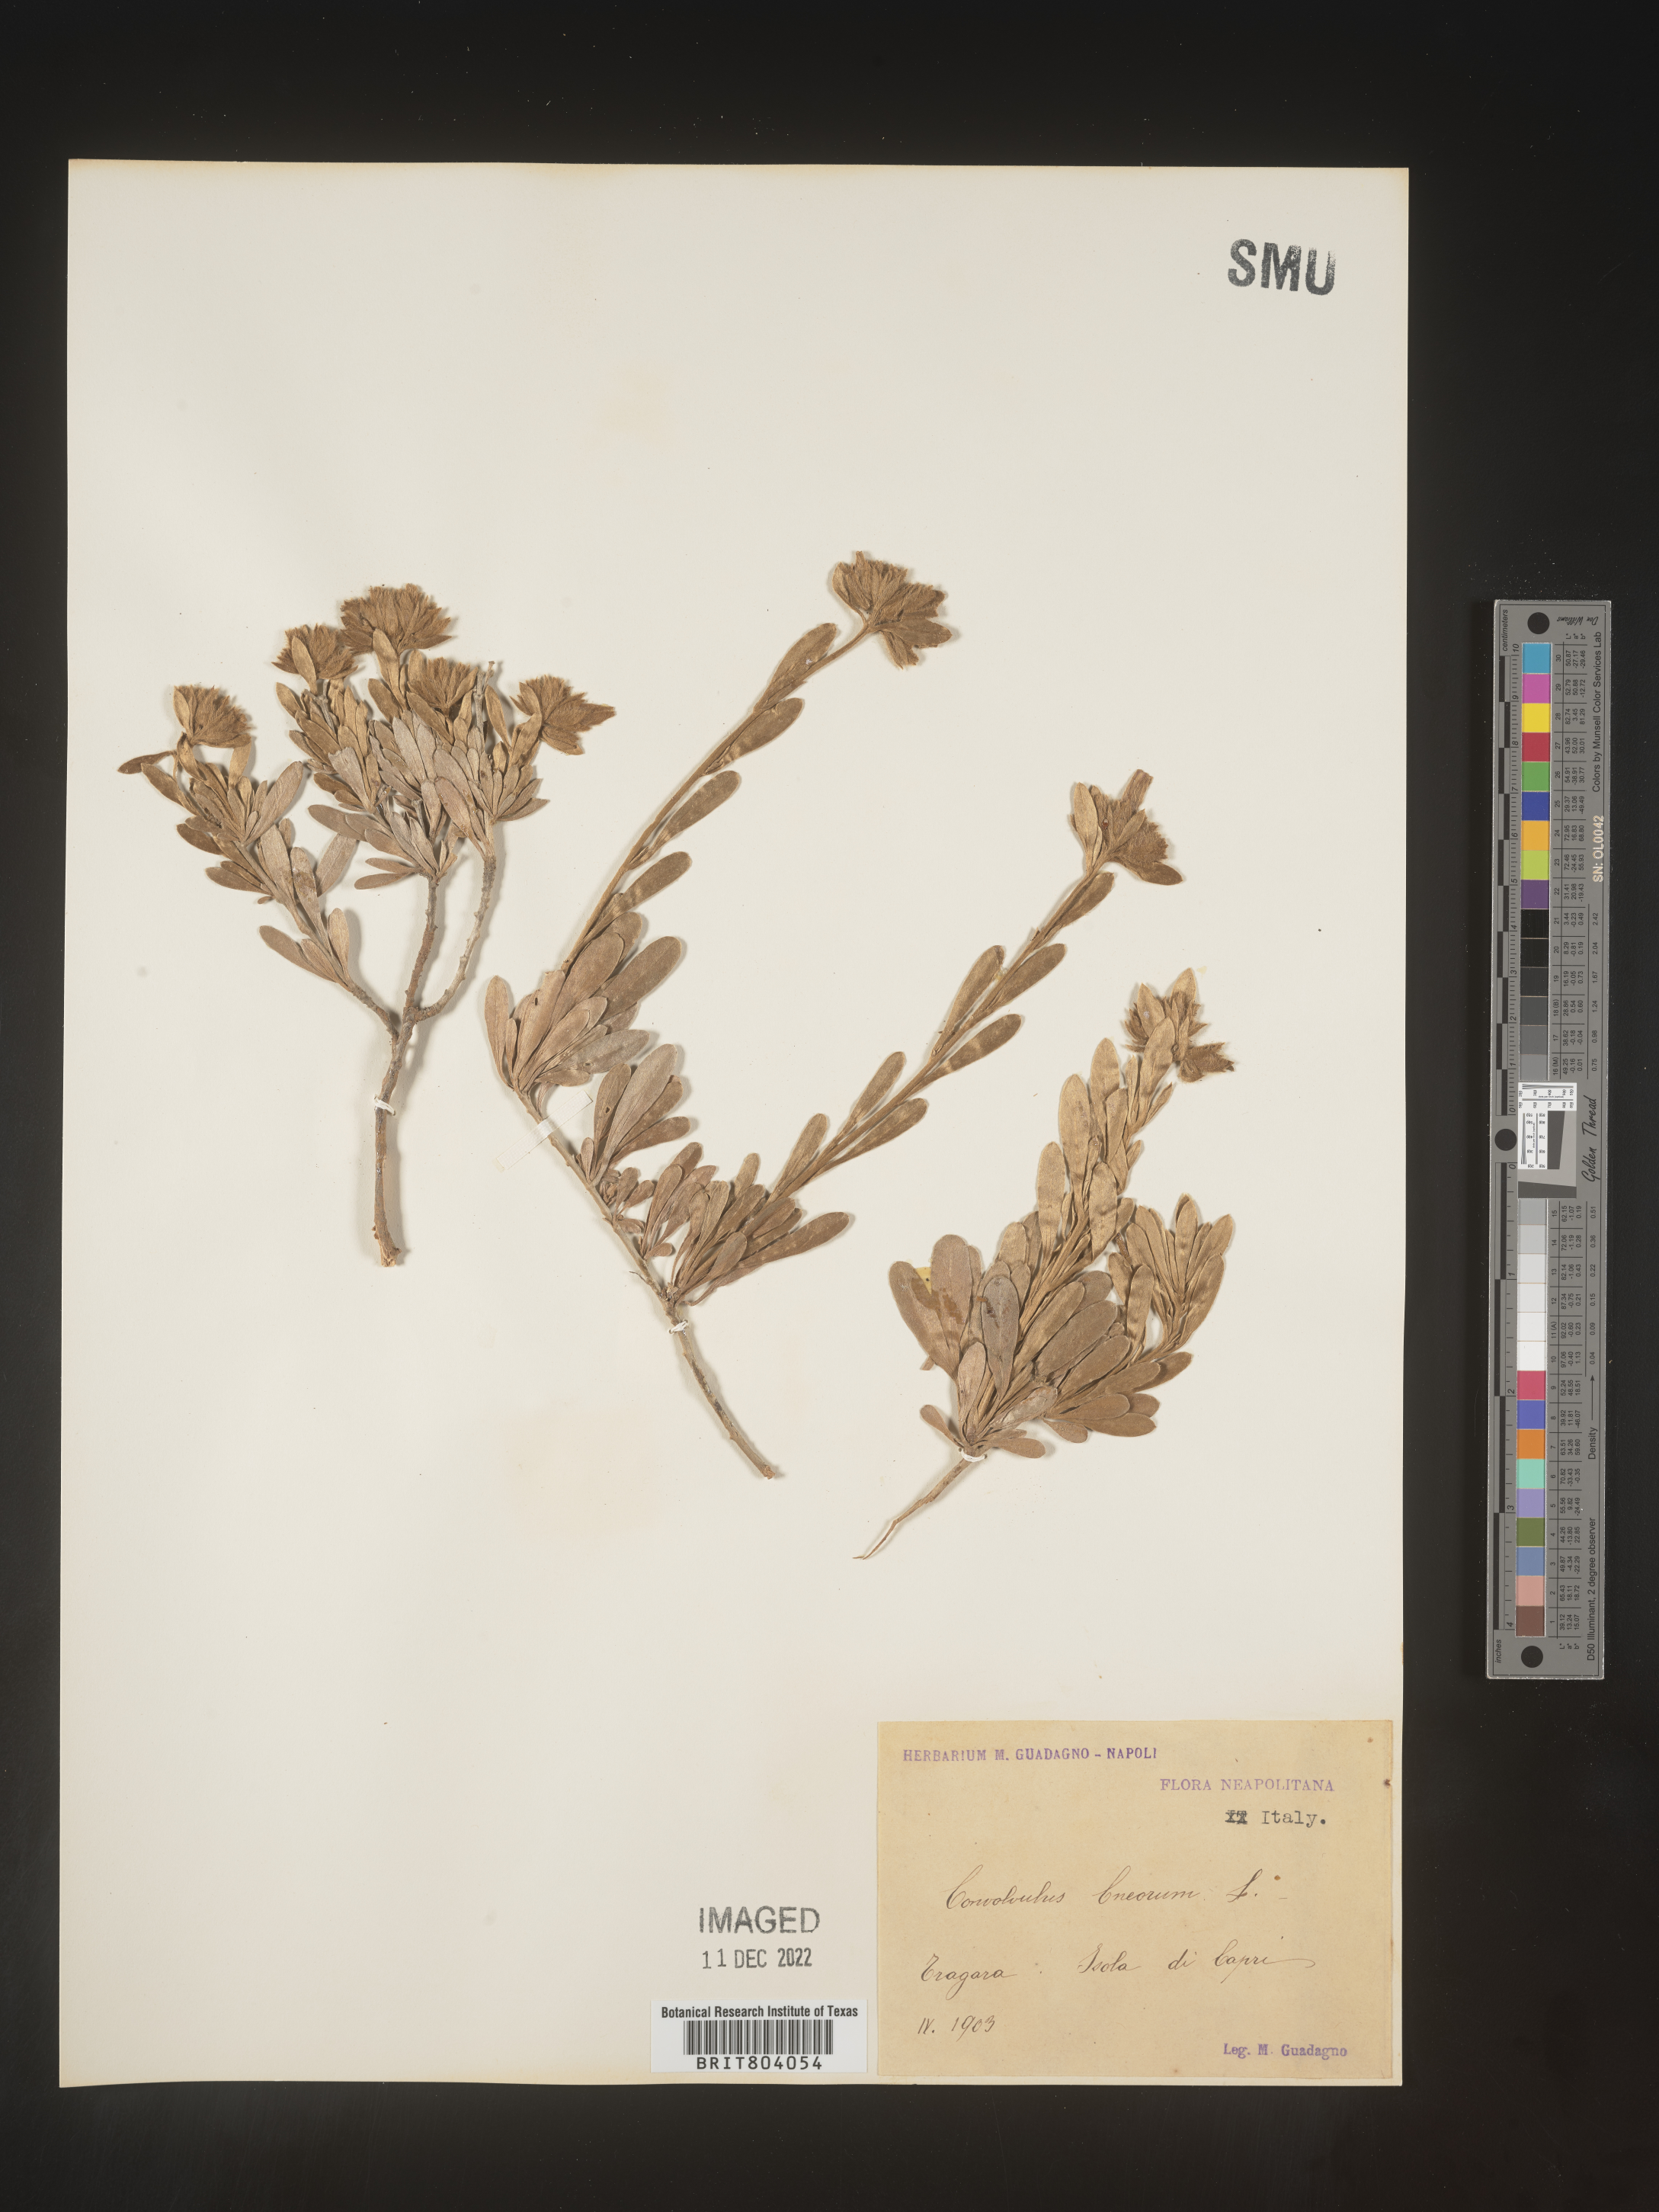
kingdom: Plantae
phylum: Tracheophyta
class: Magnoliopsida
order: Solanales
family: Convolvulaceae
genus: Convolvulus
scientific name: Convolvulus
